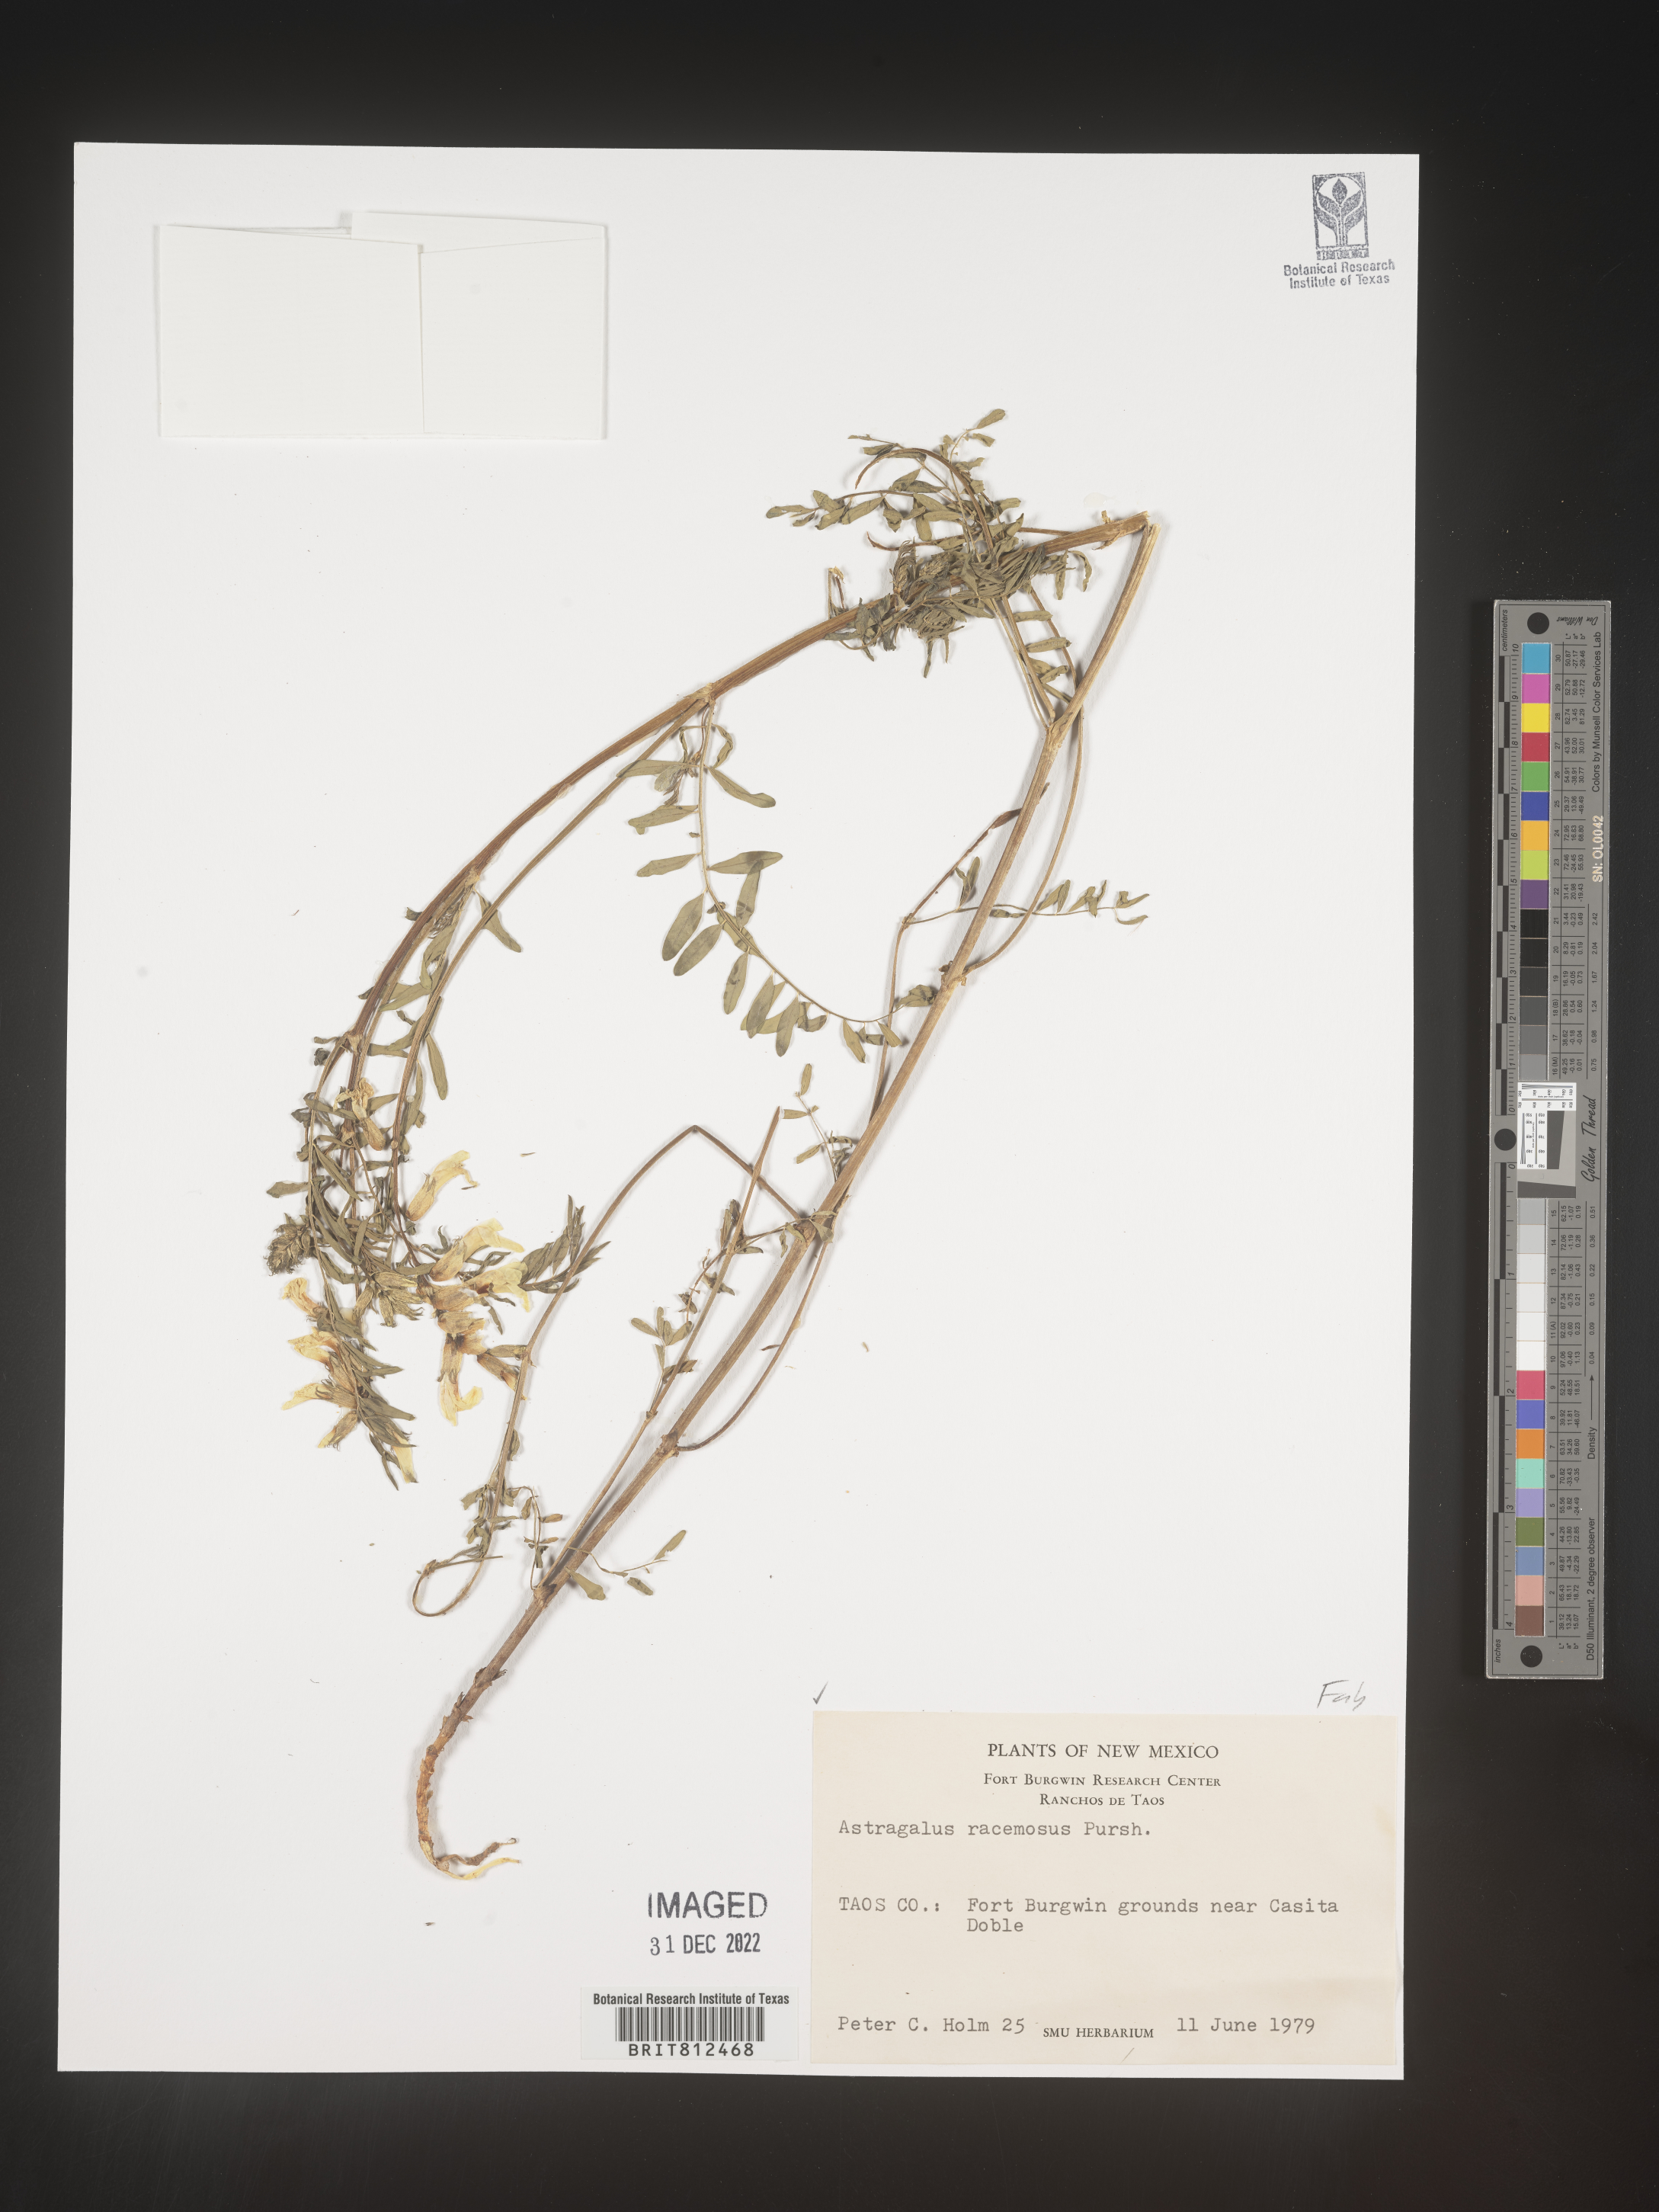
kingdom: Plantae
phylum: Tracheophyta
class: Magnoliopsida
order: Fabales
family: Fabaceae
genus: Astragalus
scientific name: Astragalus racemosus
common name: Alkali milk-vetch
